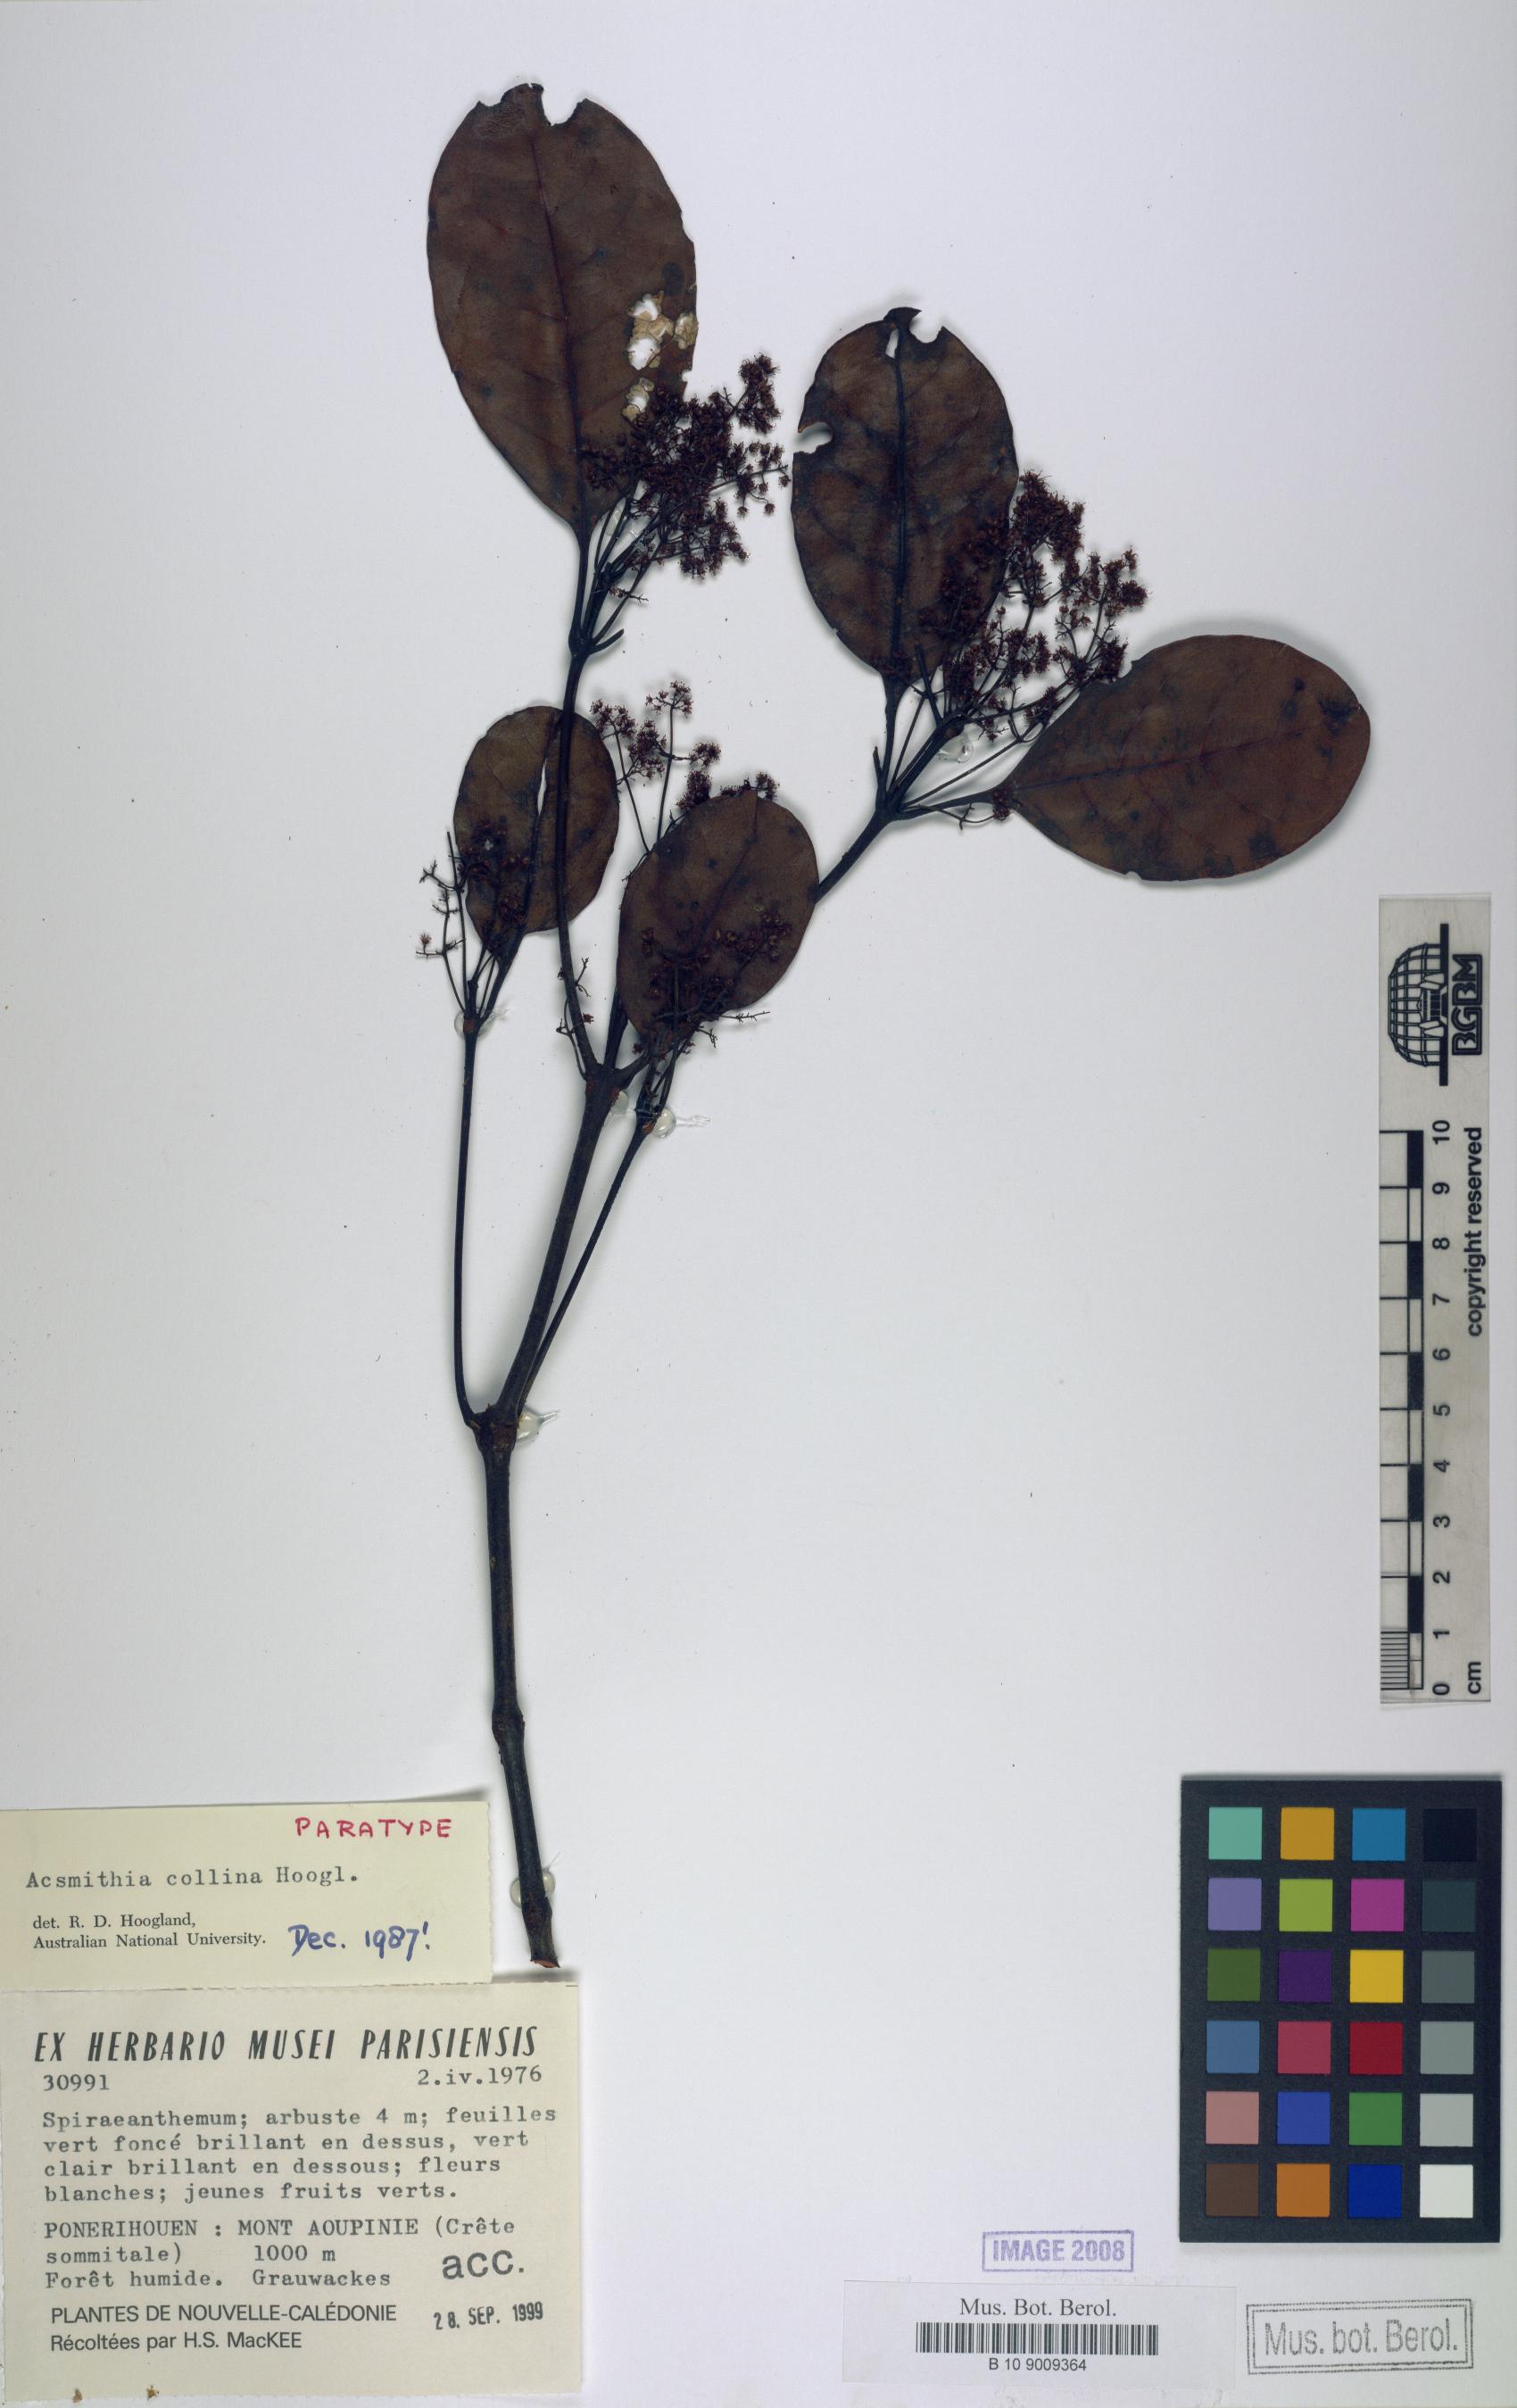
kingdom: Plantae
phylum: Tracheophyta
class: Magnoliopsida
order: Oxalidales
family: Cunoniaceae
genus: Spiraeanthemum
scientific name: Spiraeanthemum collinum
